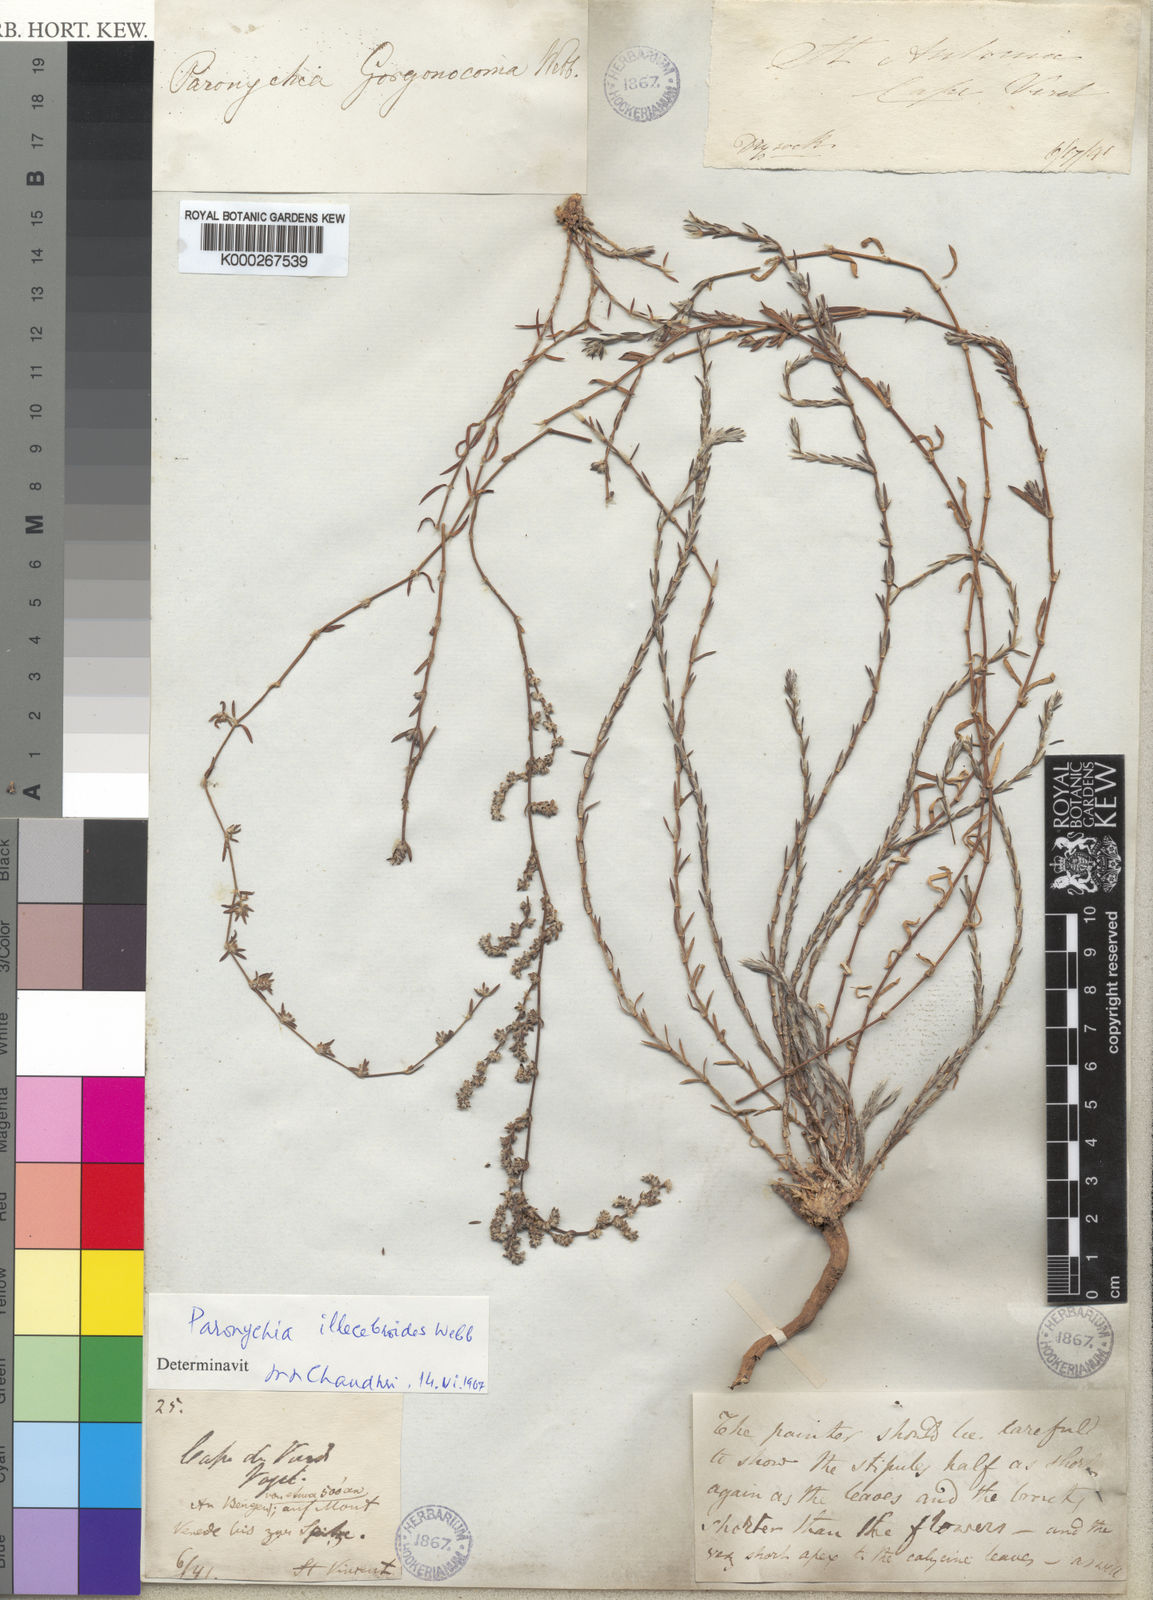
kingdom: Plantae
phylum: Tracheophyta
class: Magnoliopsida
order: Caryophyllales
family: Caryophyllaceae
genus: Paronychia
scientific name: Paronychia illecebroides
